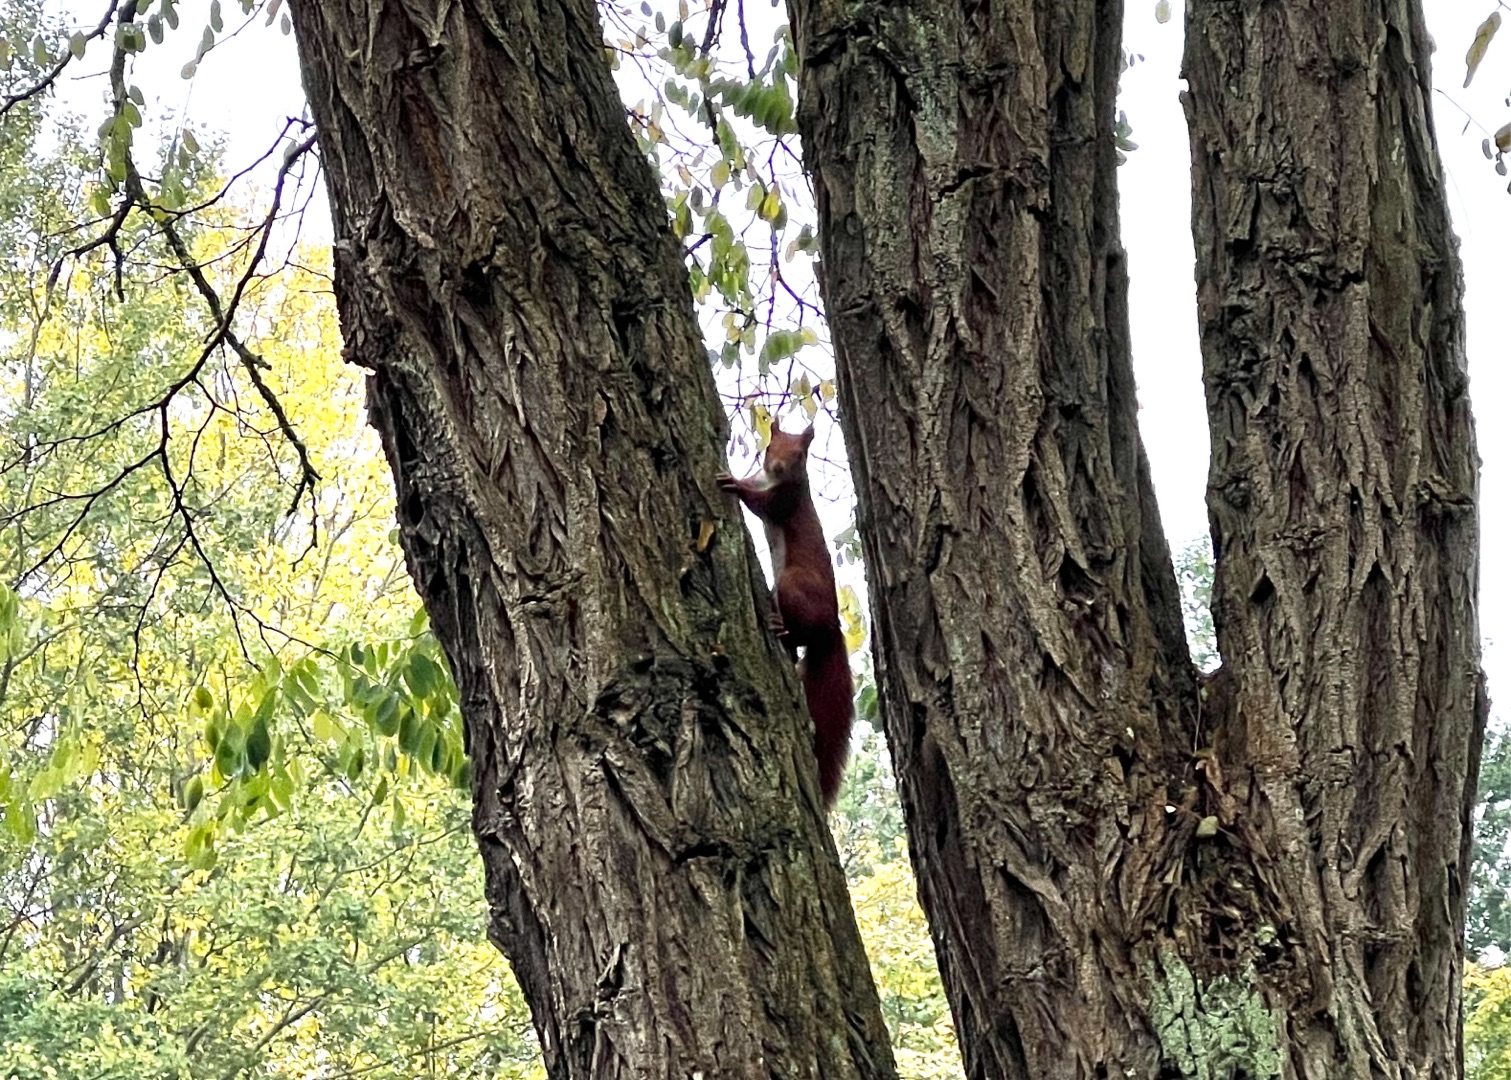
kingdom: Animalia
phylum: Chordata
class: Mammalia
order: Rodentia
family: Sciuridae
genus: Sciurus
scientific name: Sciurus vulgaris
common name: Egern
